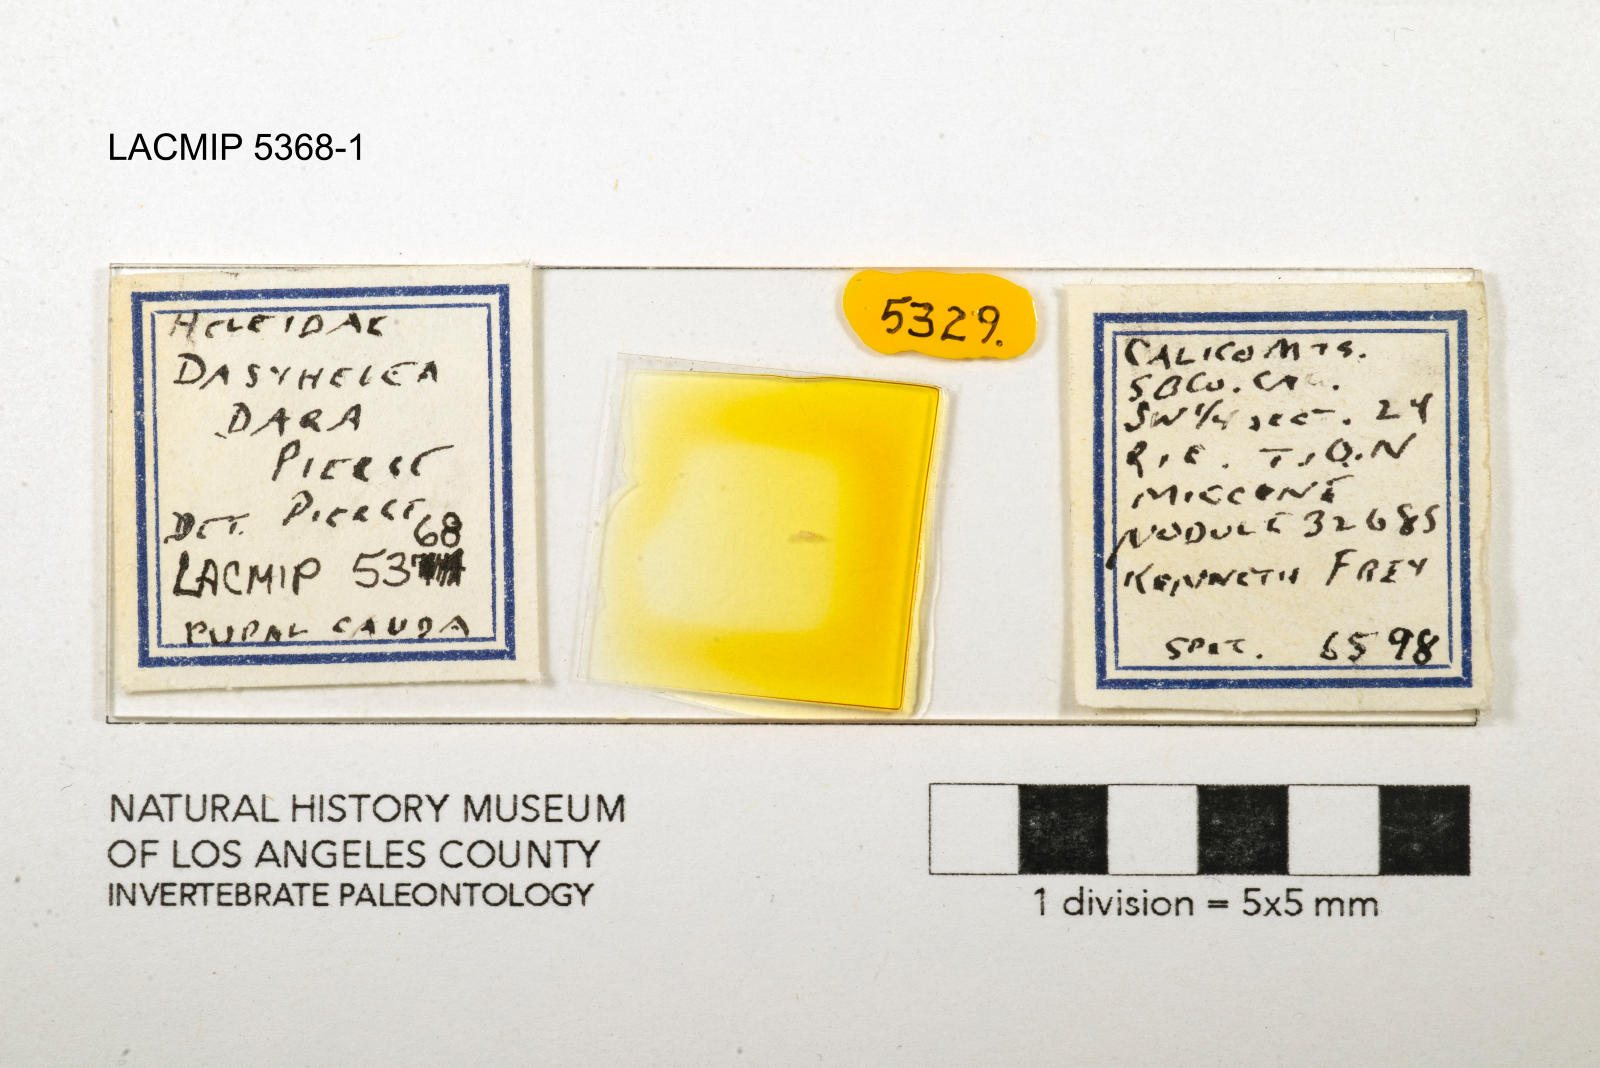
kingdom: Animalia
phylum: Arthropoda
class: Insecta
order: Diptera
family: Ceratopogonidae
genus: Dasyhelea
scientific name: Dasyhelea dara
